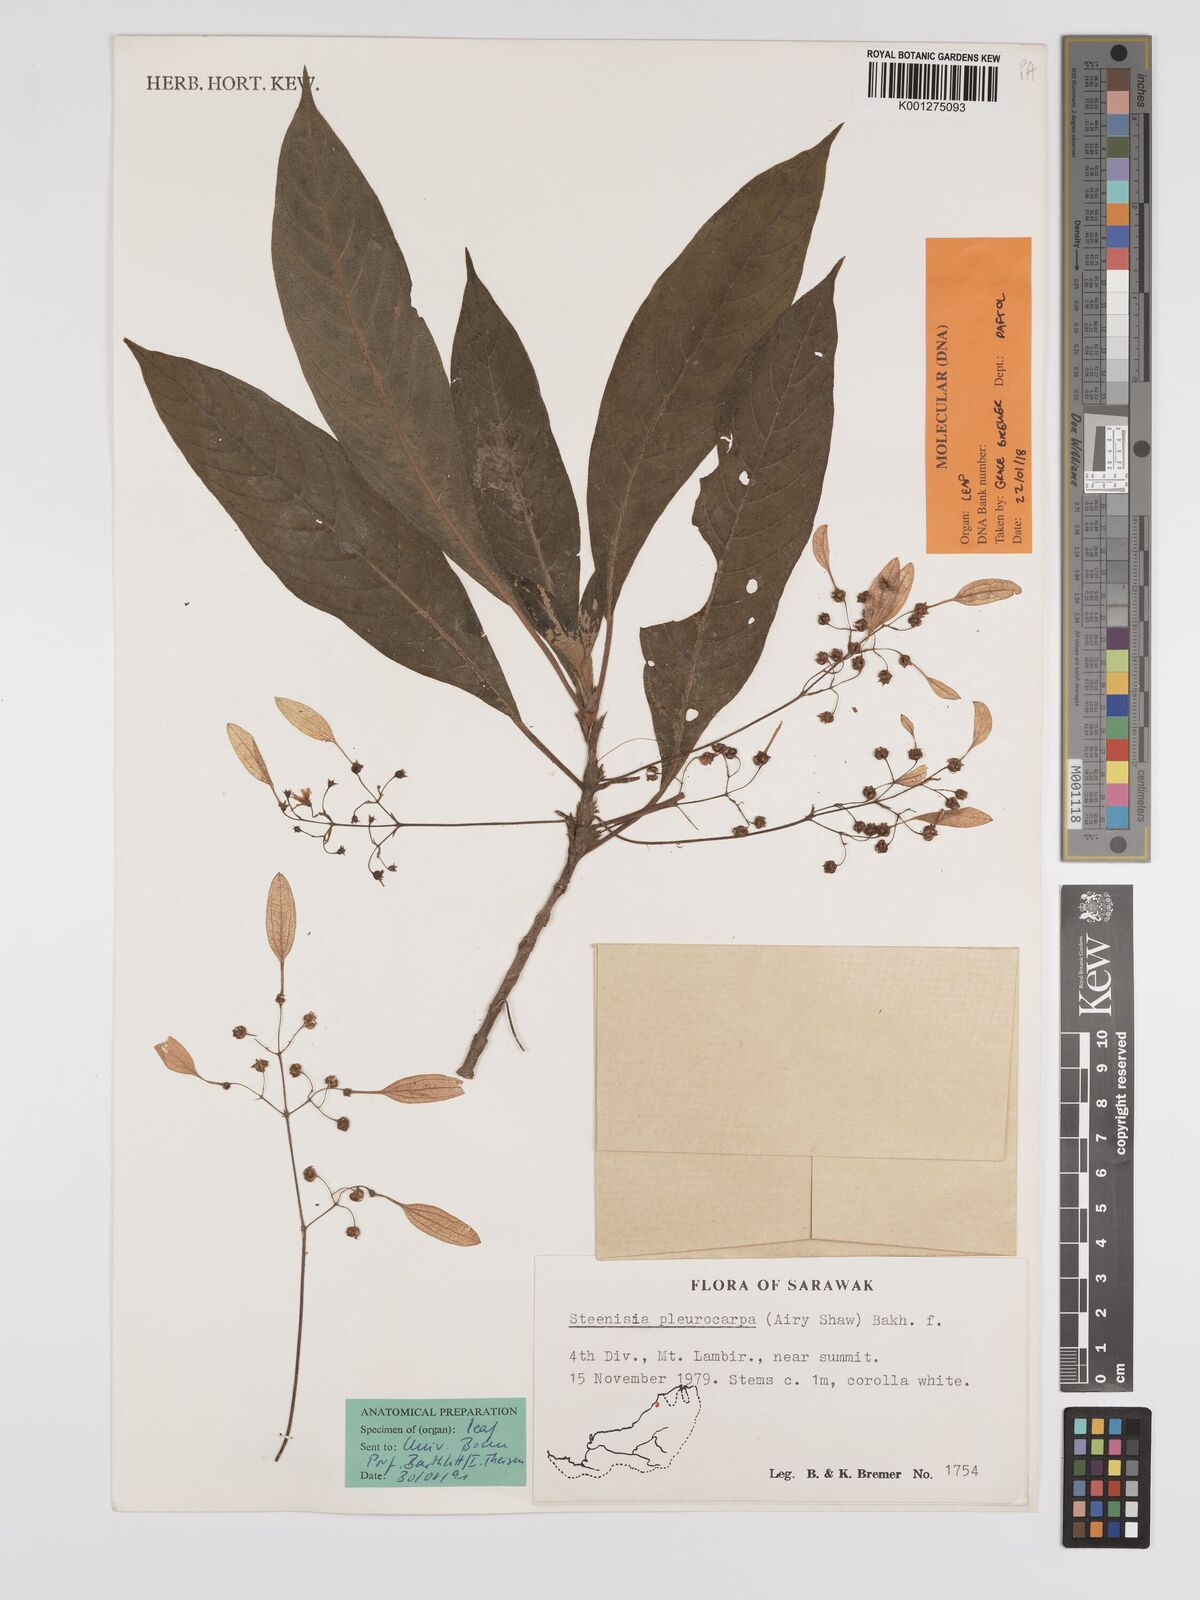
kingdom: Plantae
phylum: Tracheophyta
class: Magnoliopsida
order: Gentianales
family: Rubiaceae
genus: Steenisia
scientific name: Steenisia pleurocarpa
